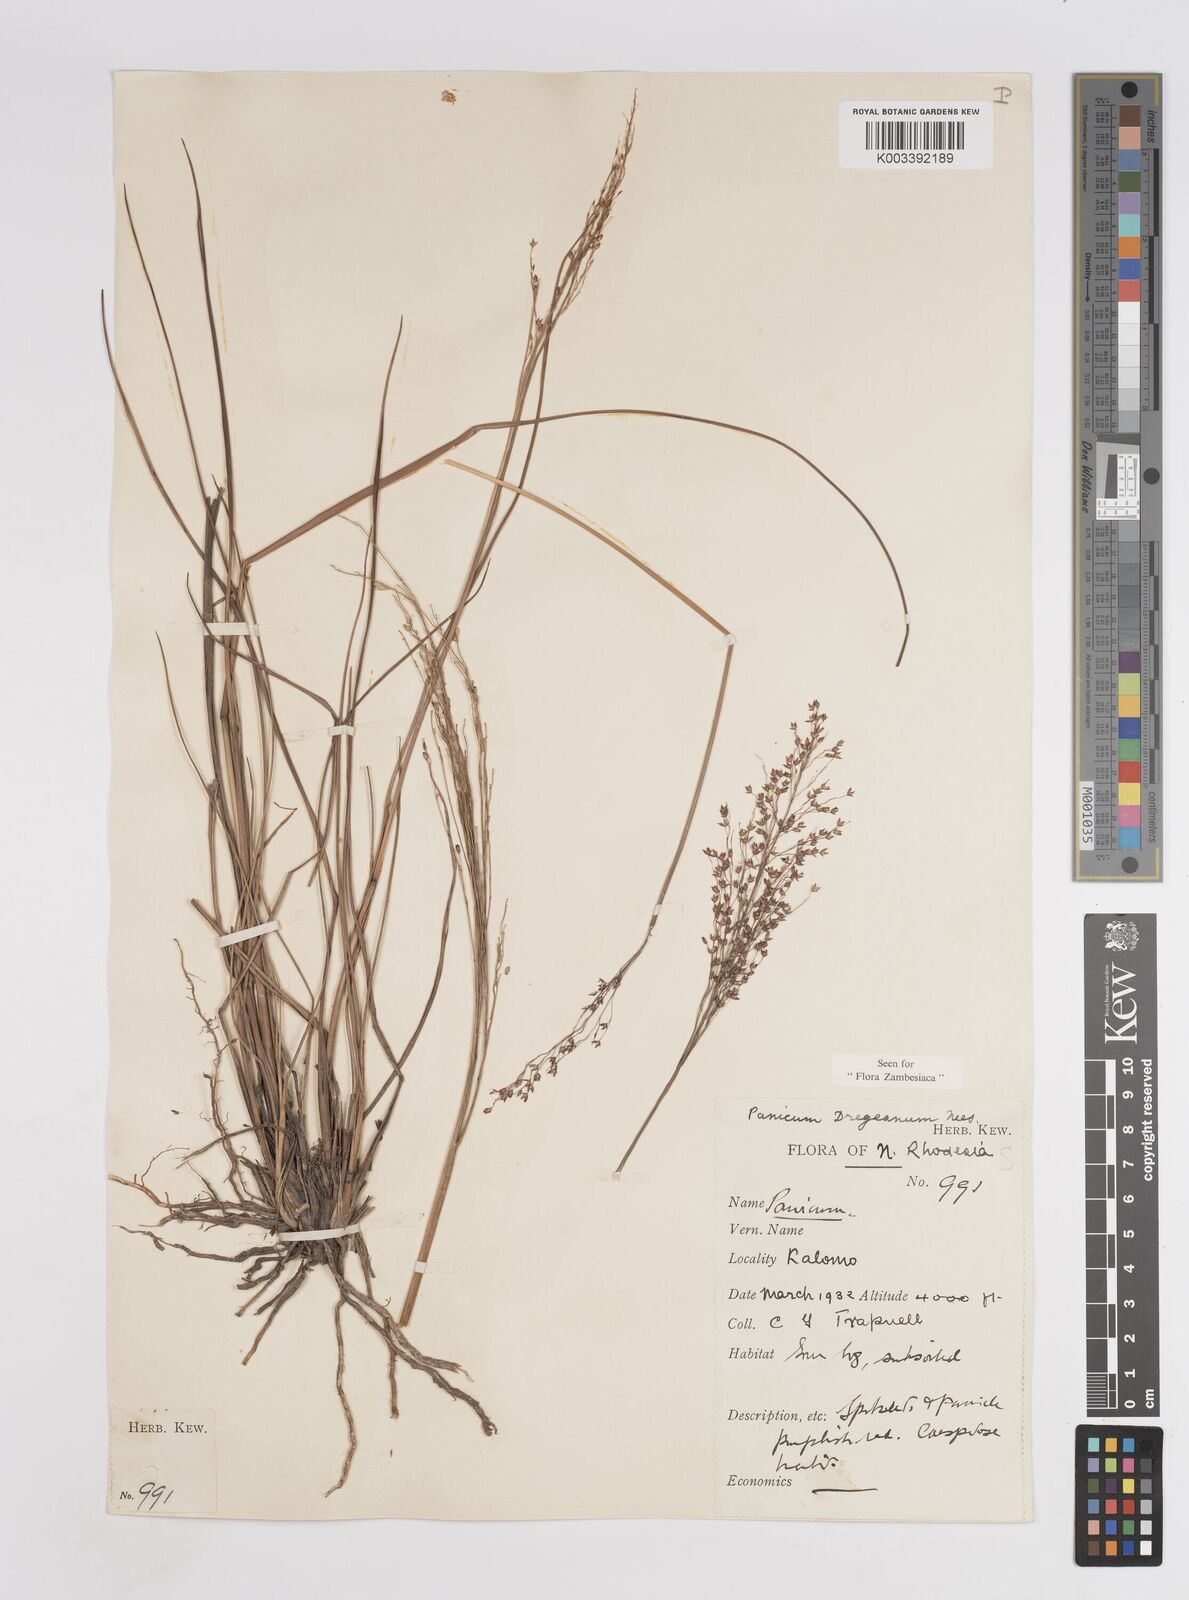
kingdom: Plantae
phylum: Tracheophyta
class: Liliopsida
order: Poales
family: Poaceae
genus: Panicum
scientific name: Panicum dregeanum
